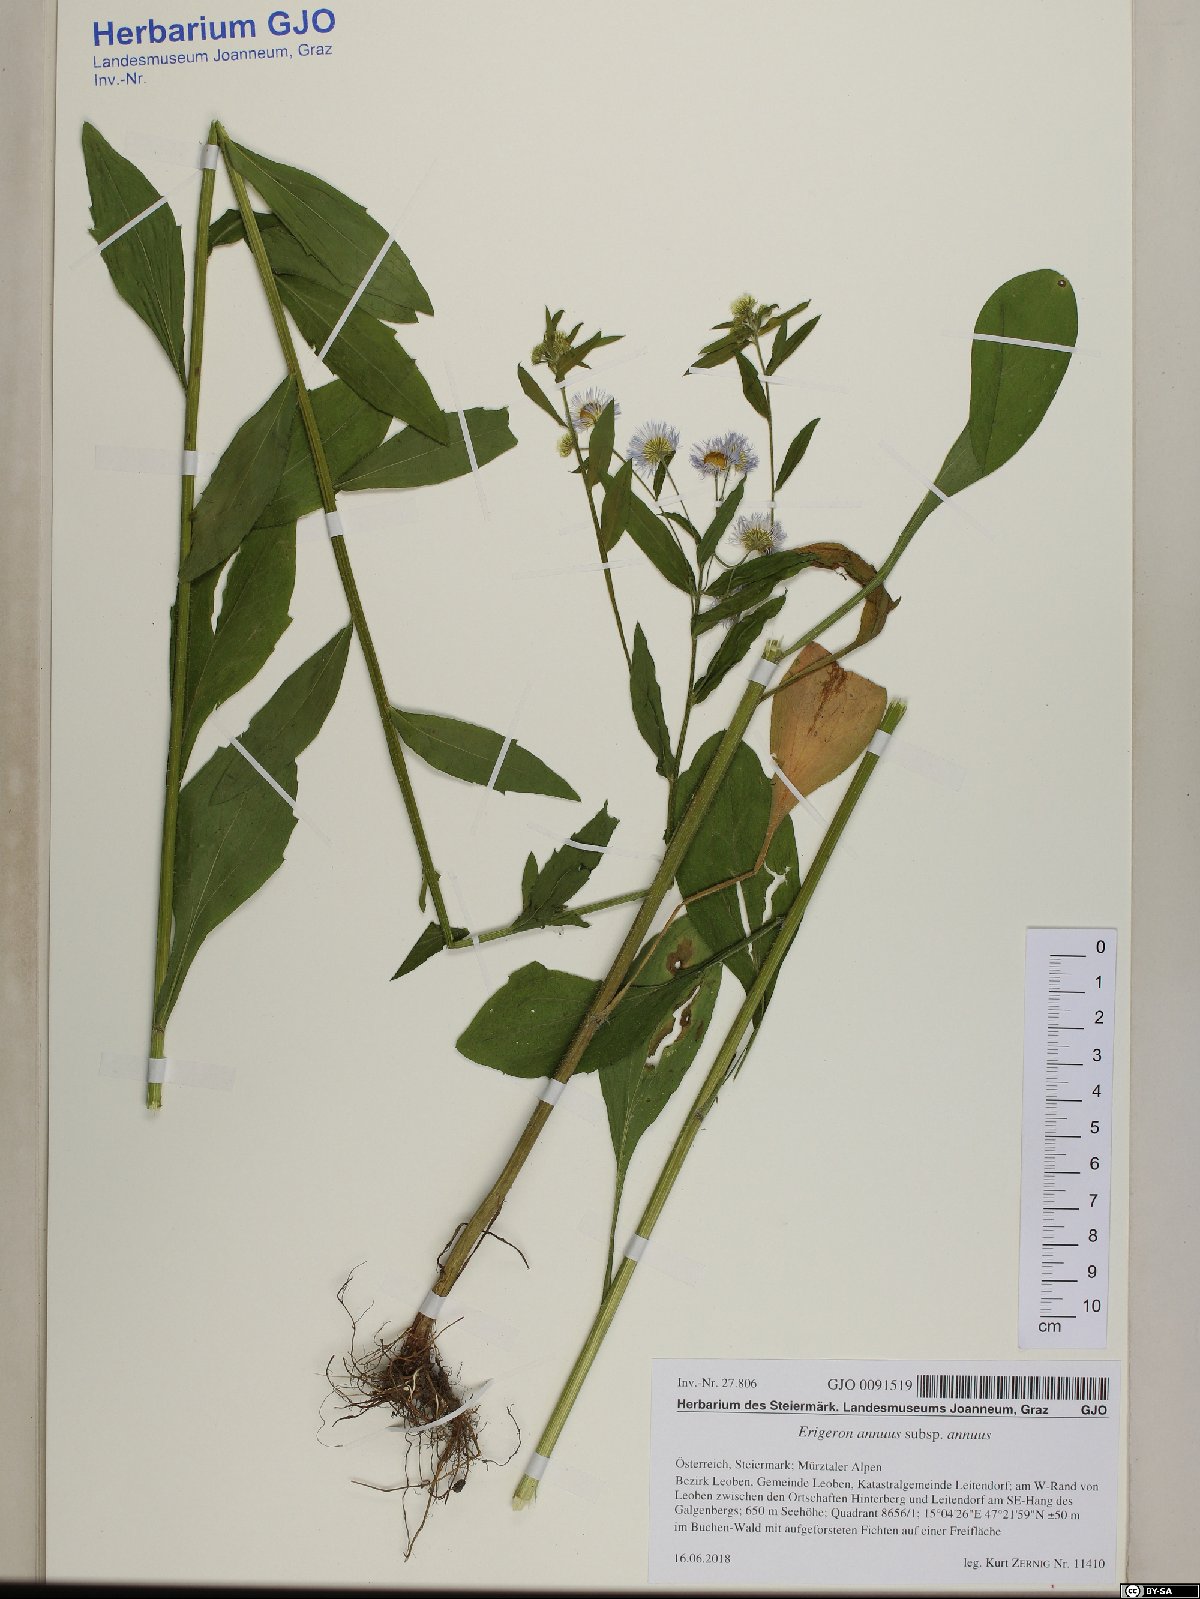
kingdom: Plantae
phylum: Tracheophyta
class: Magnoliopsida
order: Asterales
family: Asteraceae
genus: Erigeron
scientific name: Erigeron annuus
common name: Tall fleabane
